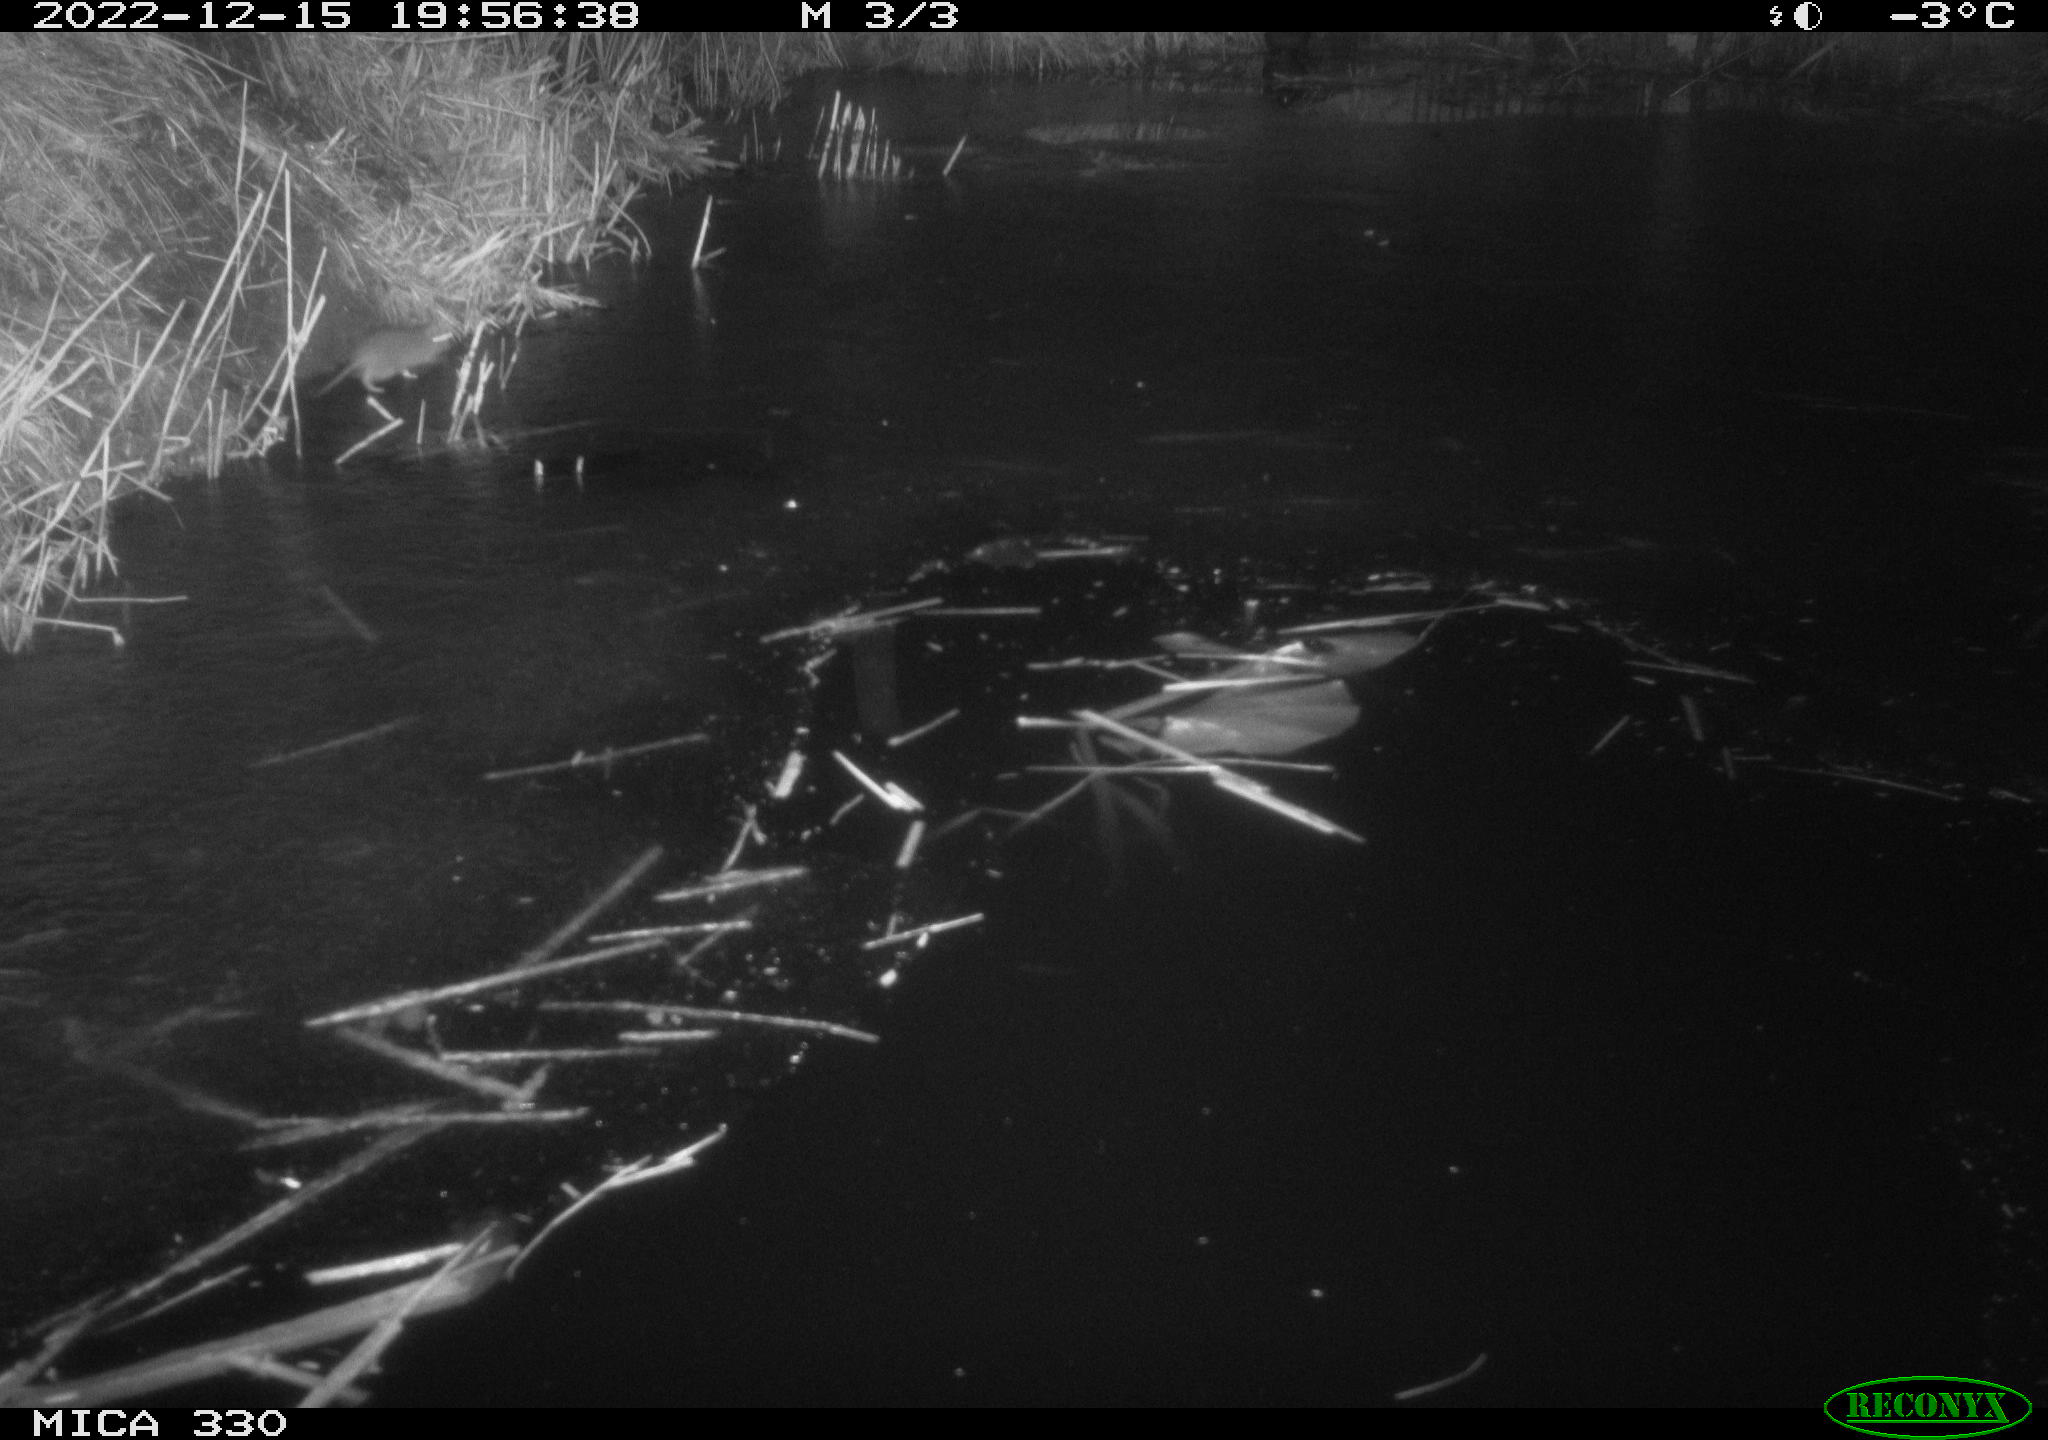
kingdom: Animalia
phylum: Chordata
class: Mammalia
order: Rodentia
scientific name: Rodentia
